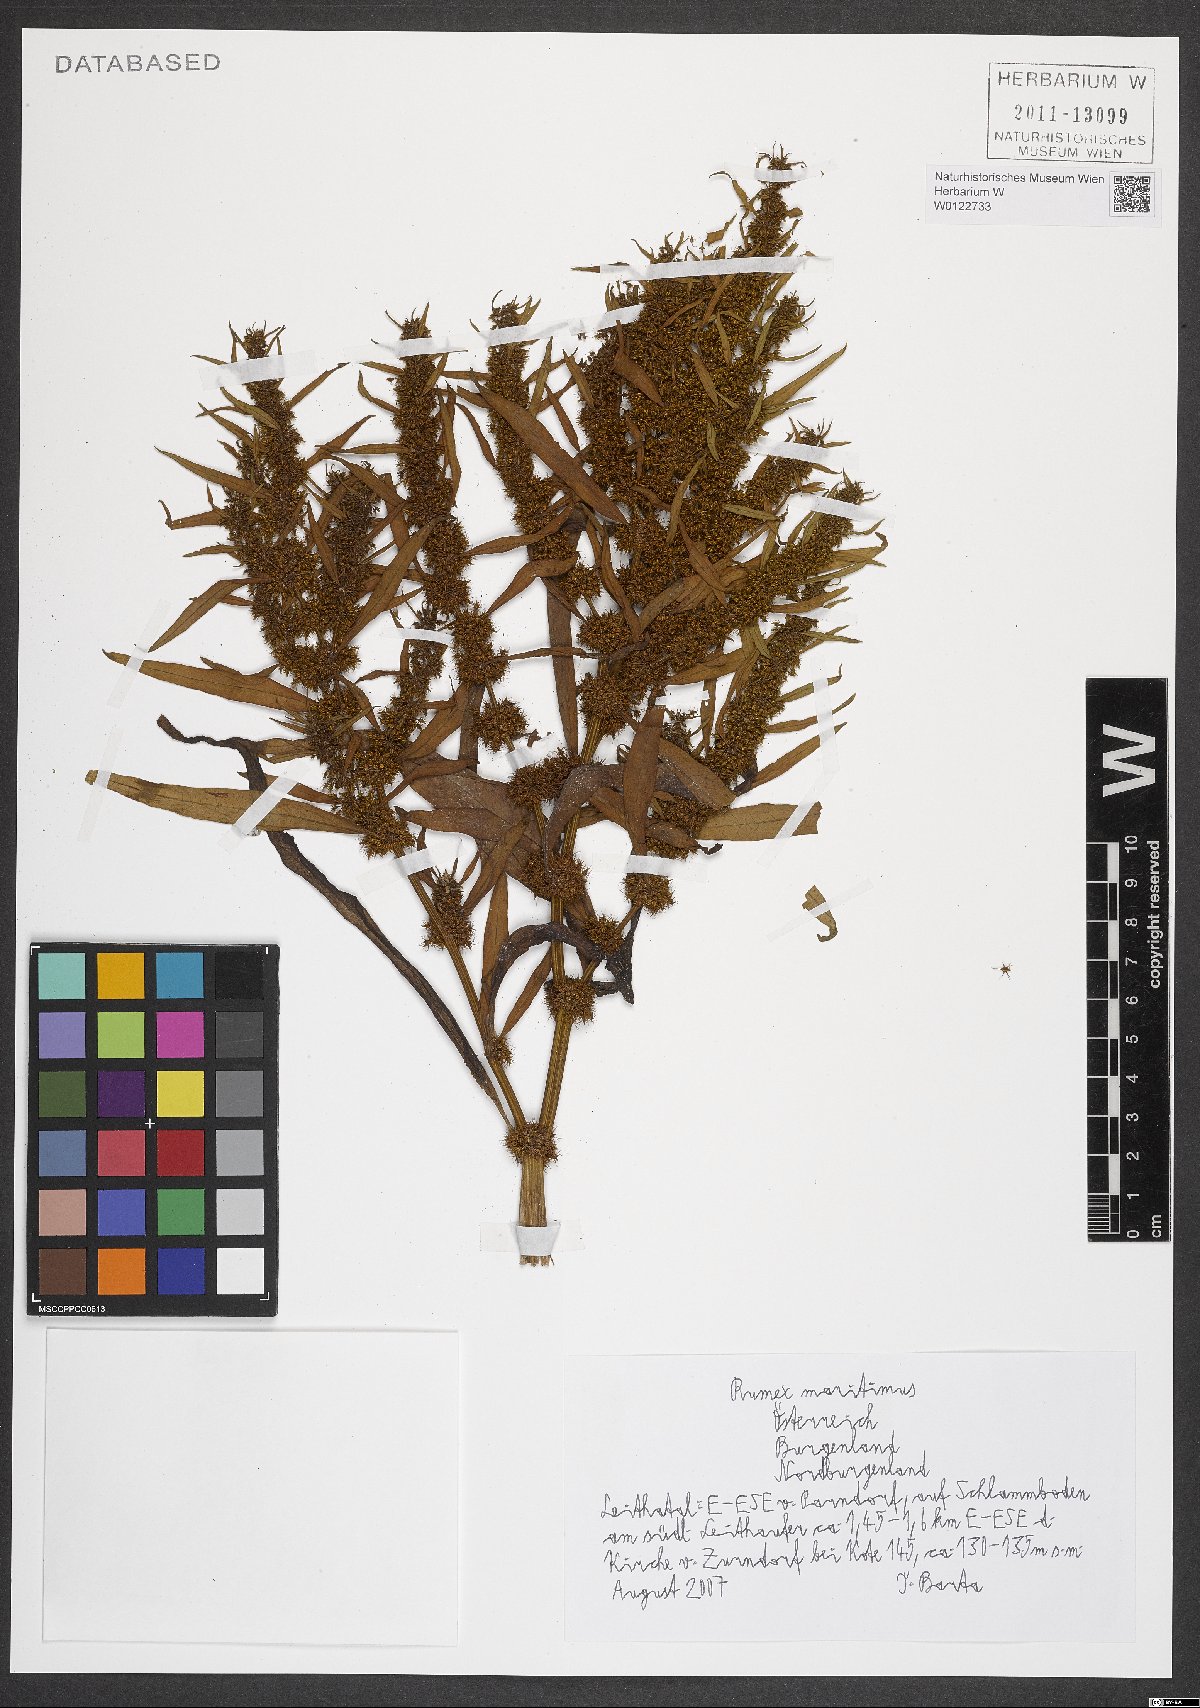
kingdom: Plantae
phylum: Tracheophyta
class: Magnoliopsida
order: Caryophyllales
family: Polygonaceae
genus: Rumex
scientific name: Rumex maritimus
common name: Golden dock
